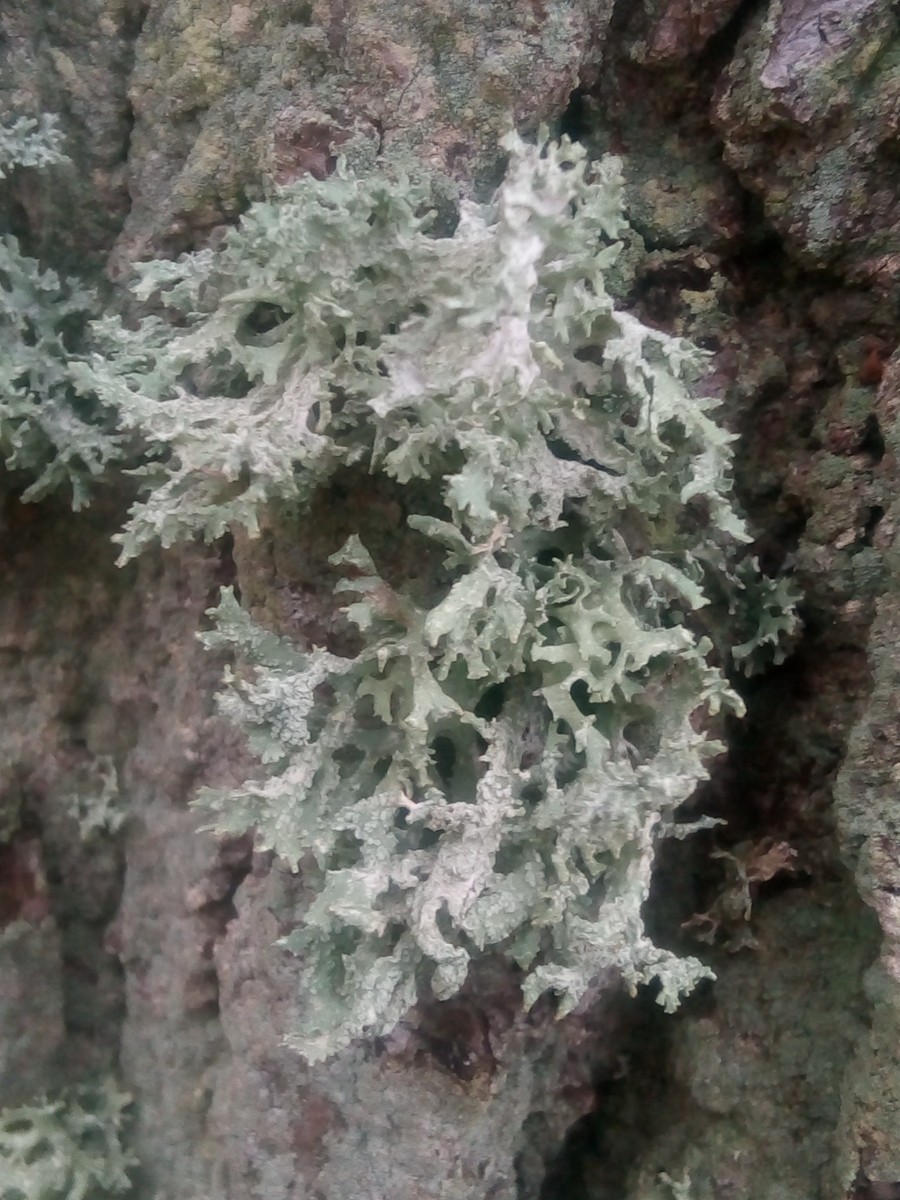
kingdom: Fungi
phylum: Ascomycota
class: Lecanoromycetes
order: Lecanorales
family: Parmeliaceae
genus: Evernia
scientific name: Evernia prunastri
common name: almindelig slåenlav
